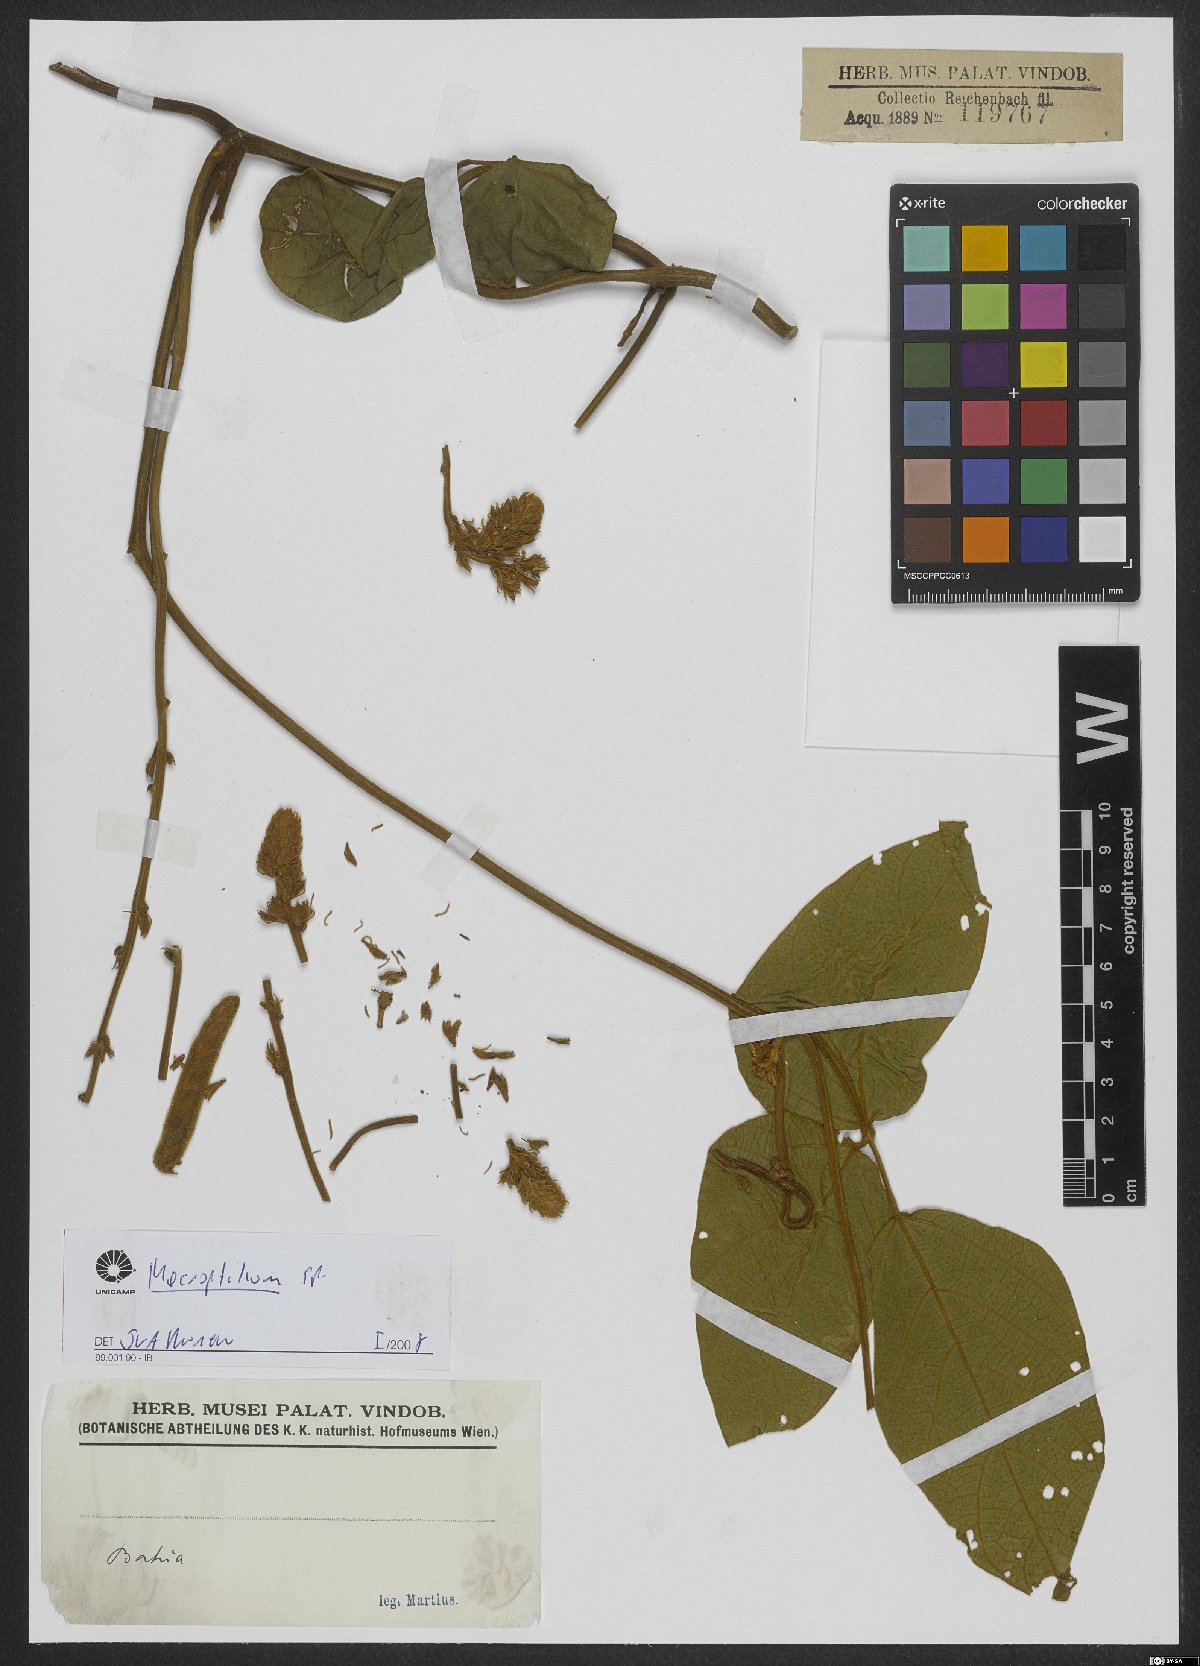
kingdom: Plantae
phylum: Tracheophyta
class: Magnoliopsida
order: Fabales
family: Fabaceae
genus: Macroptilium
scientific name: Macroptilium
